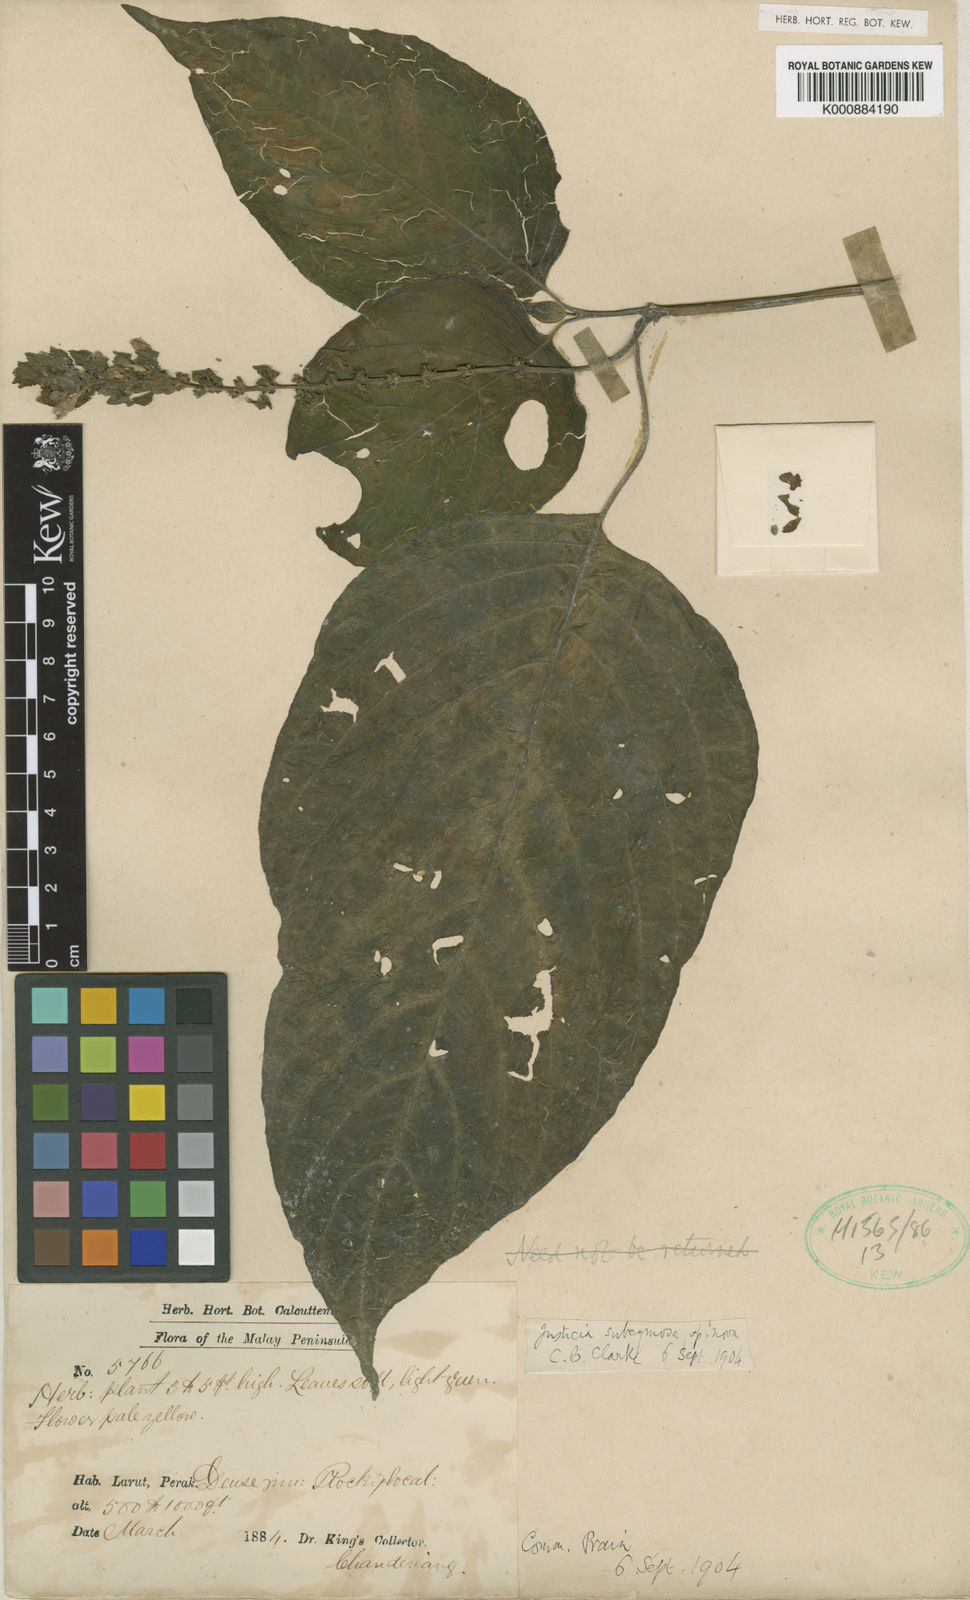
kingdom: Plantae
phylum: Tracheophyta
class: Magnoliopsida
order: Lamiales
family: Acanthaceae
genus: Justicia
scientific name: Justicia subcymosa
